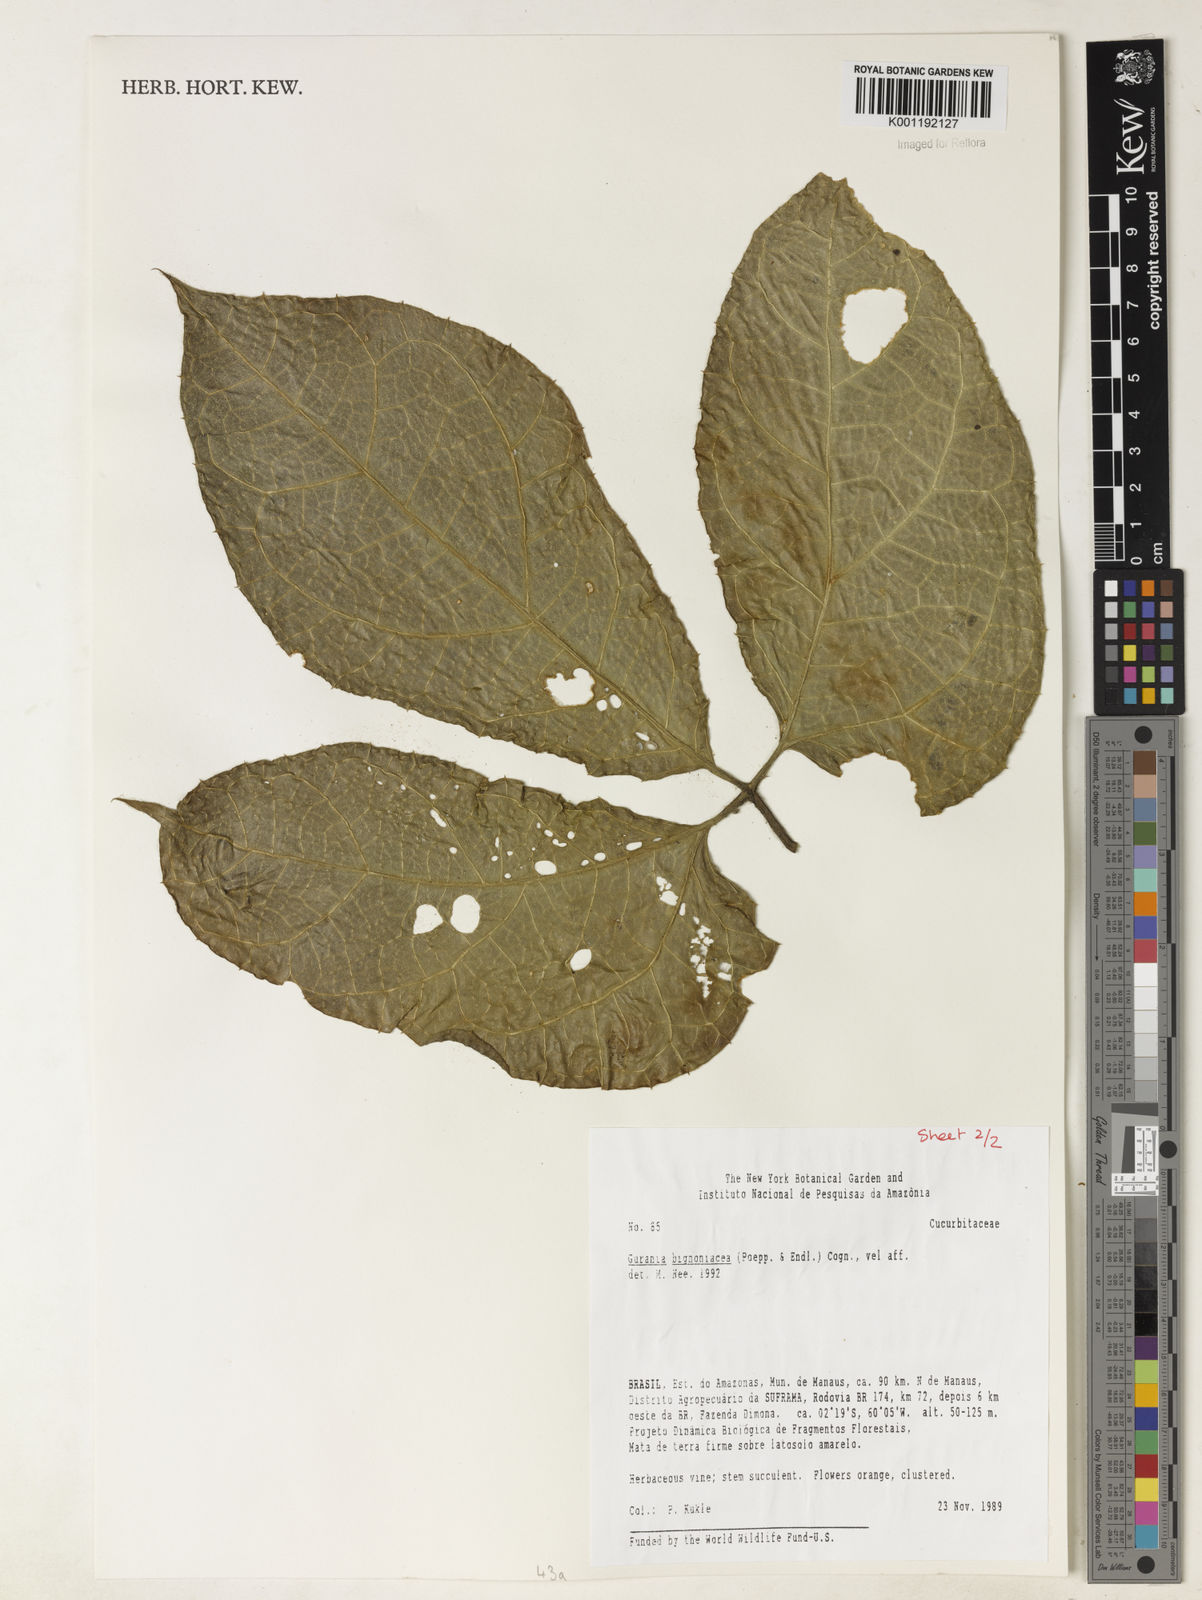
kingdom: Plantae
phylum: Tracheophyta
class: Magnoliopsida
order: Cucurbitales
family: Cucurbitaceae
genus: Gurania
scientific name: Gurania bignoniacea
